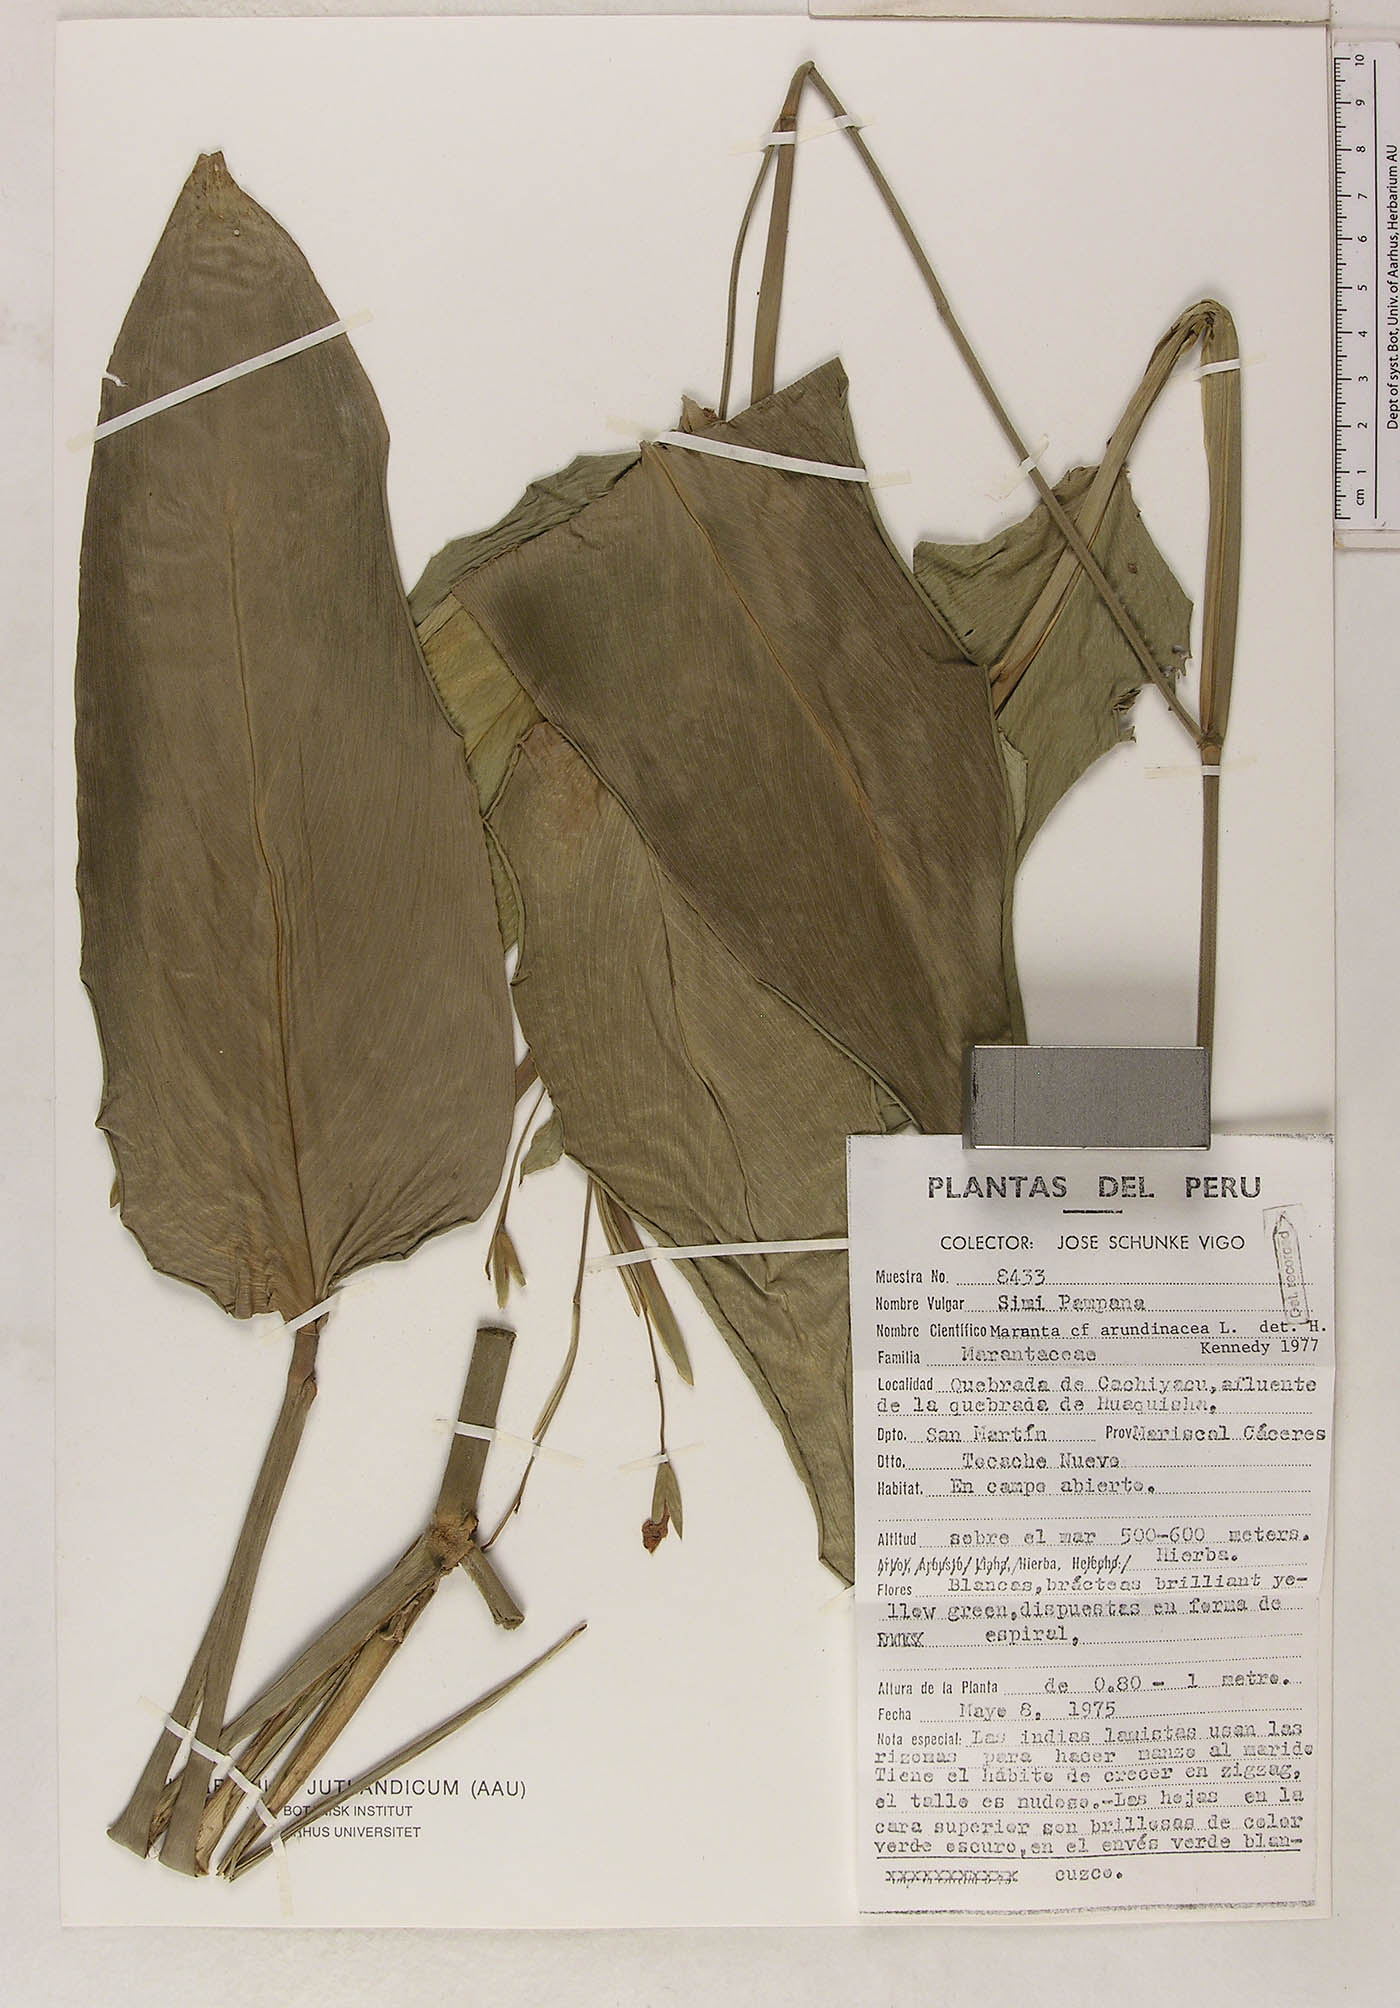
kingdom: Plantae
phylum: Tracheophyta
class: Liliopsida
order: Zingiberales
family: Marantaceae
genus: Maranta
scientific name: Maranta arundinacea
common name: Arrowroot
